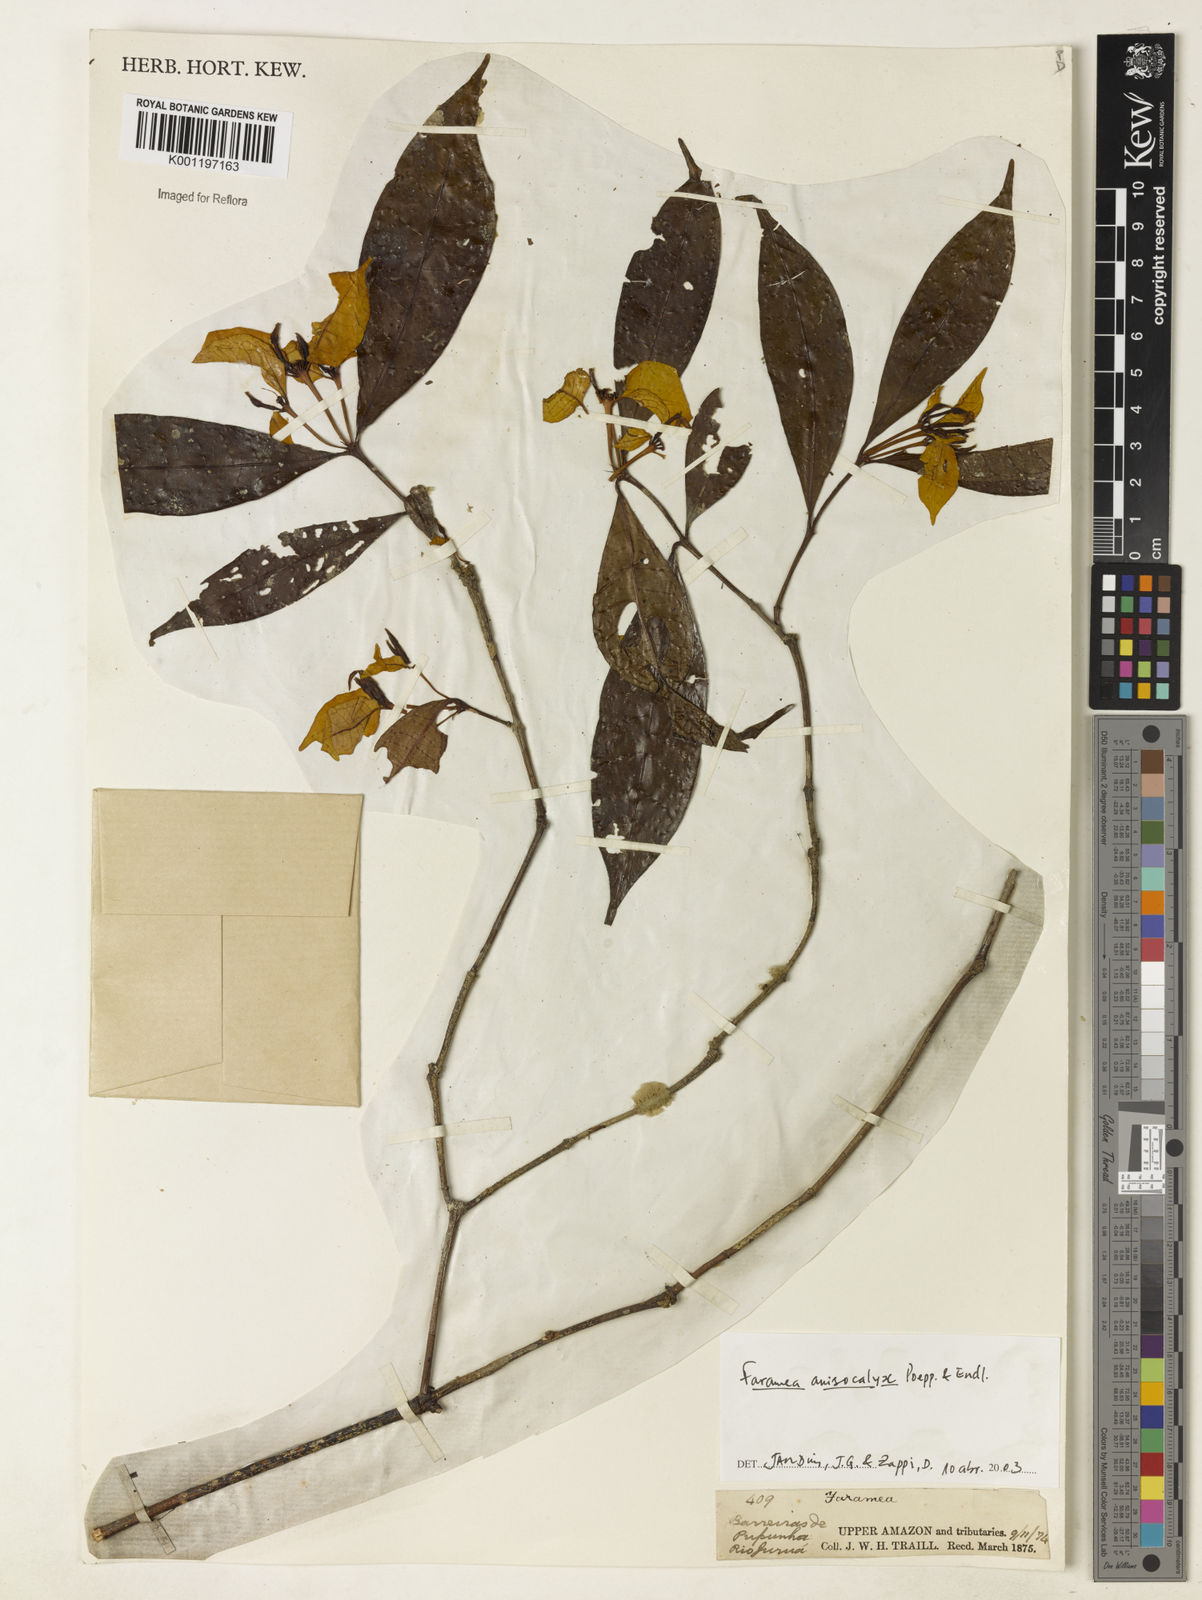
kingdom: Plantae
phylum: Tracheophyta
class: Magnoliopsida
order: Gentianales
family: Rubiaceae
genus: Faramea
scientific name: Faramea anisocalyx
